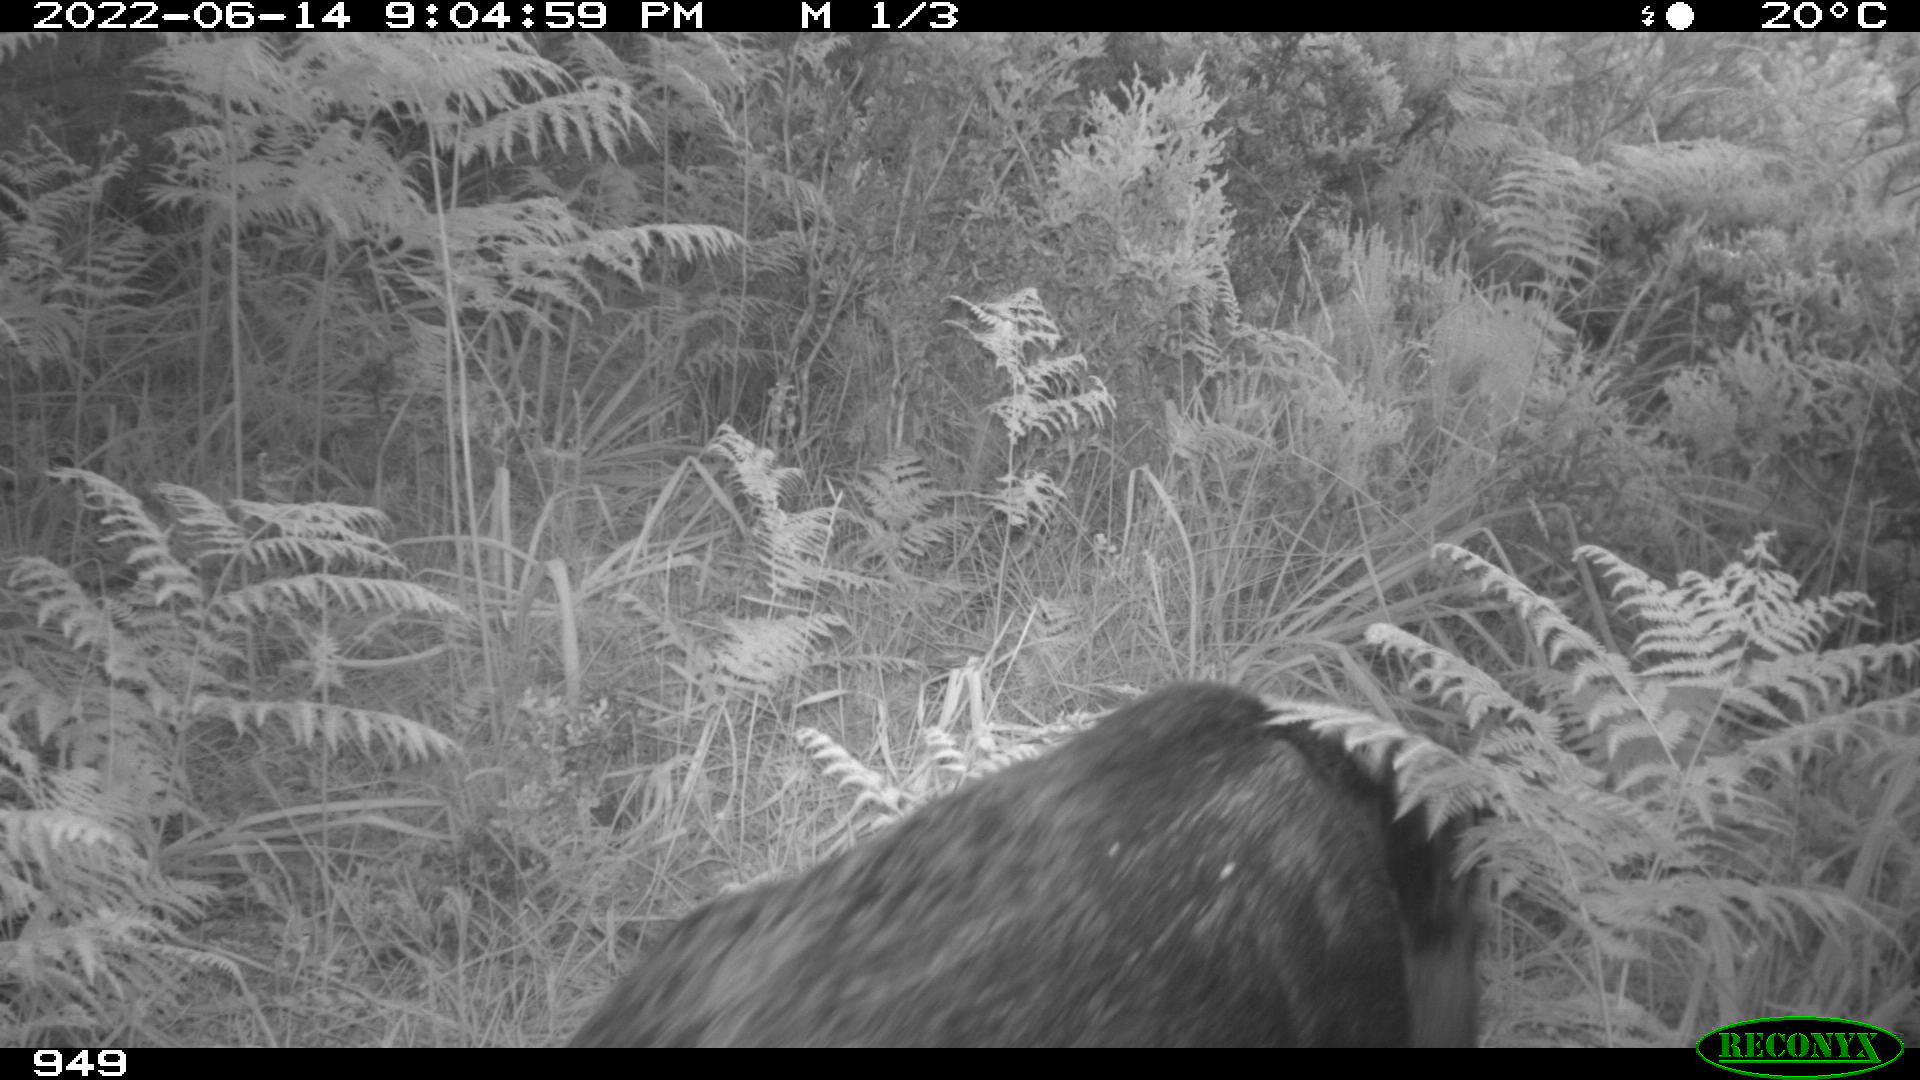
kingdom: Animalia
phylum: Chordata
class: Mammalia
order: Artiodactyla
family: Suidae
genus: Sus
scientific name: Sus scrofa
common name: Wild boar
